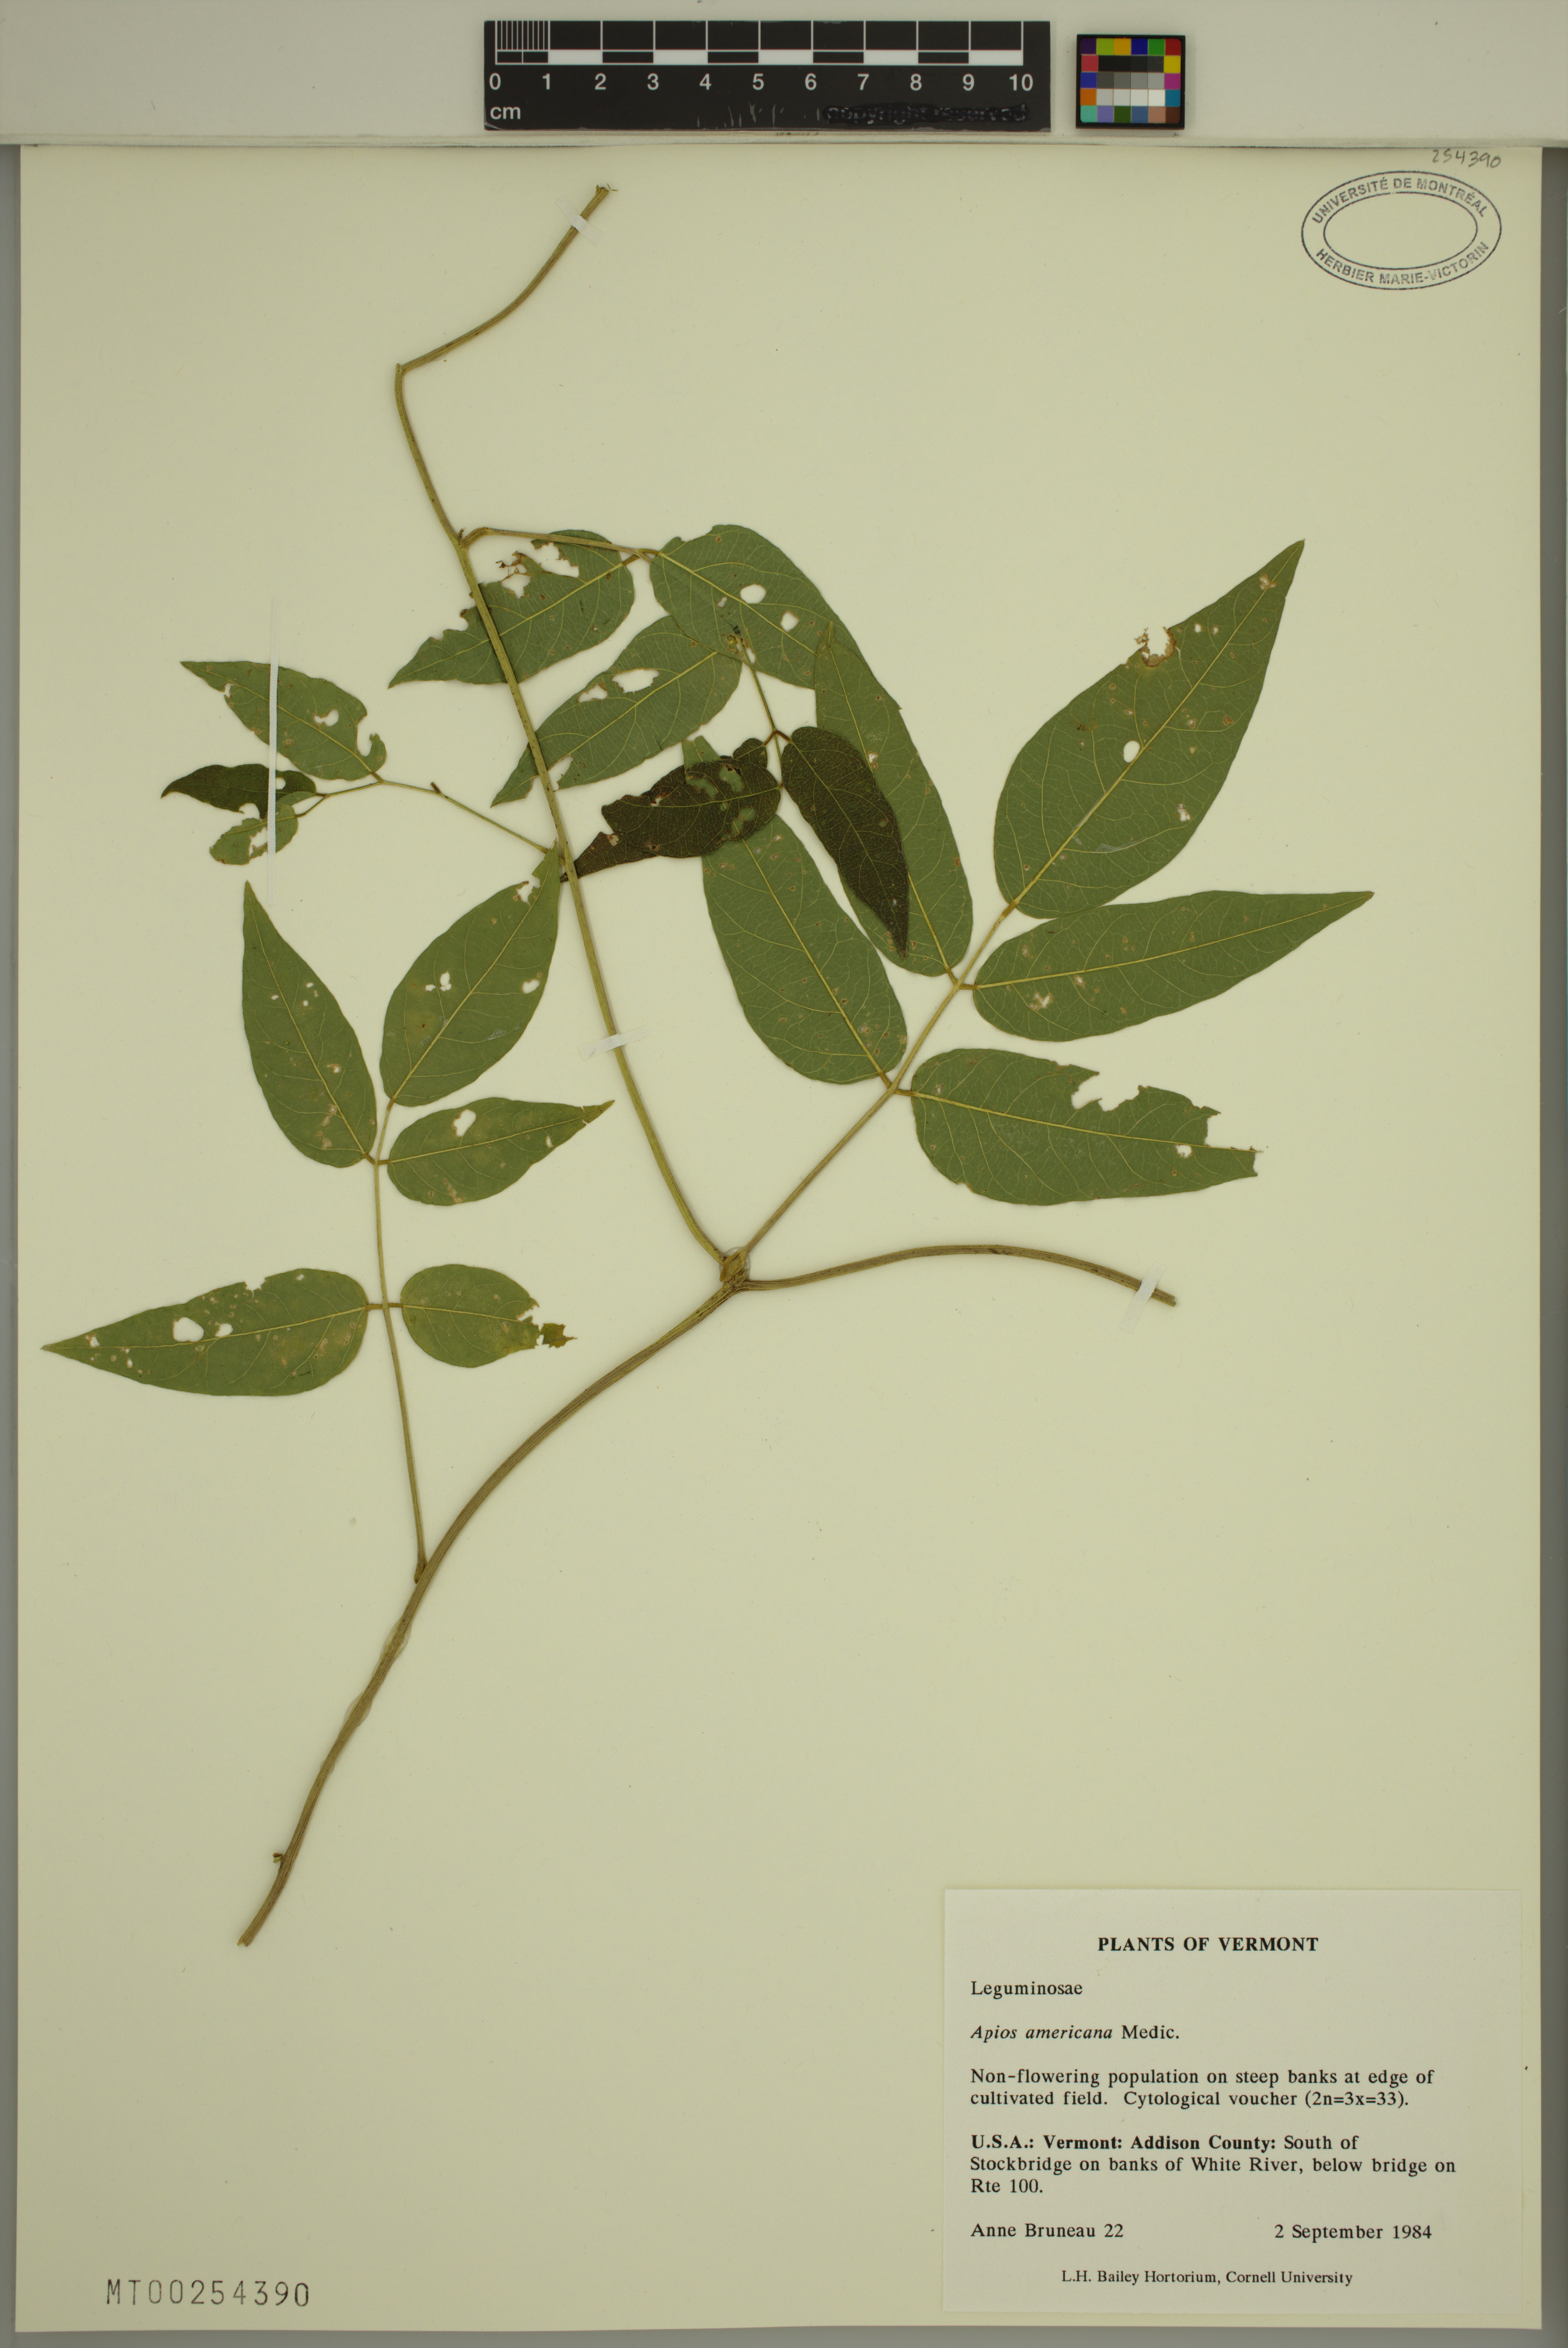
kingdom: Plantae
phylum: Tracheophyta
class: Magnoliopsida
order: Fabales
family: Fabaceae
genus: Apios
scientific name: Apios americana
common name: American potato-bean
